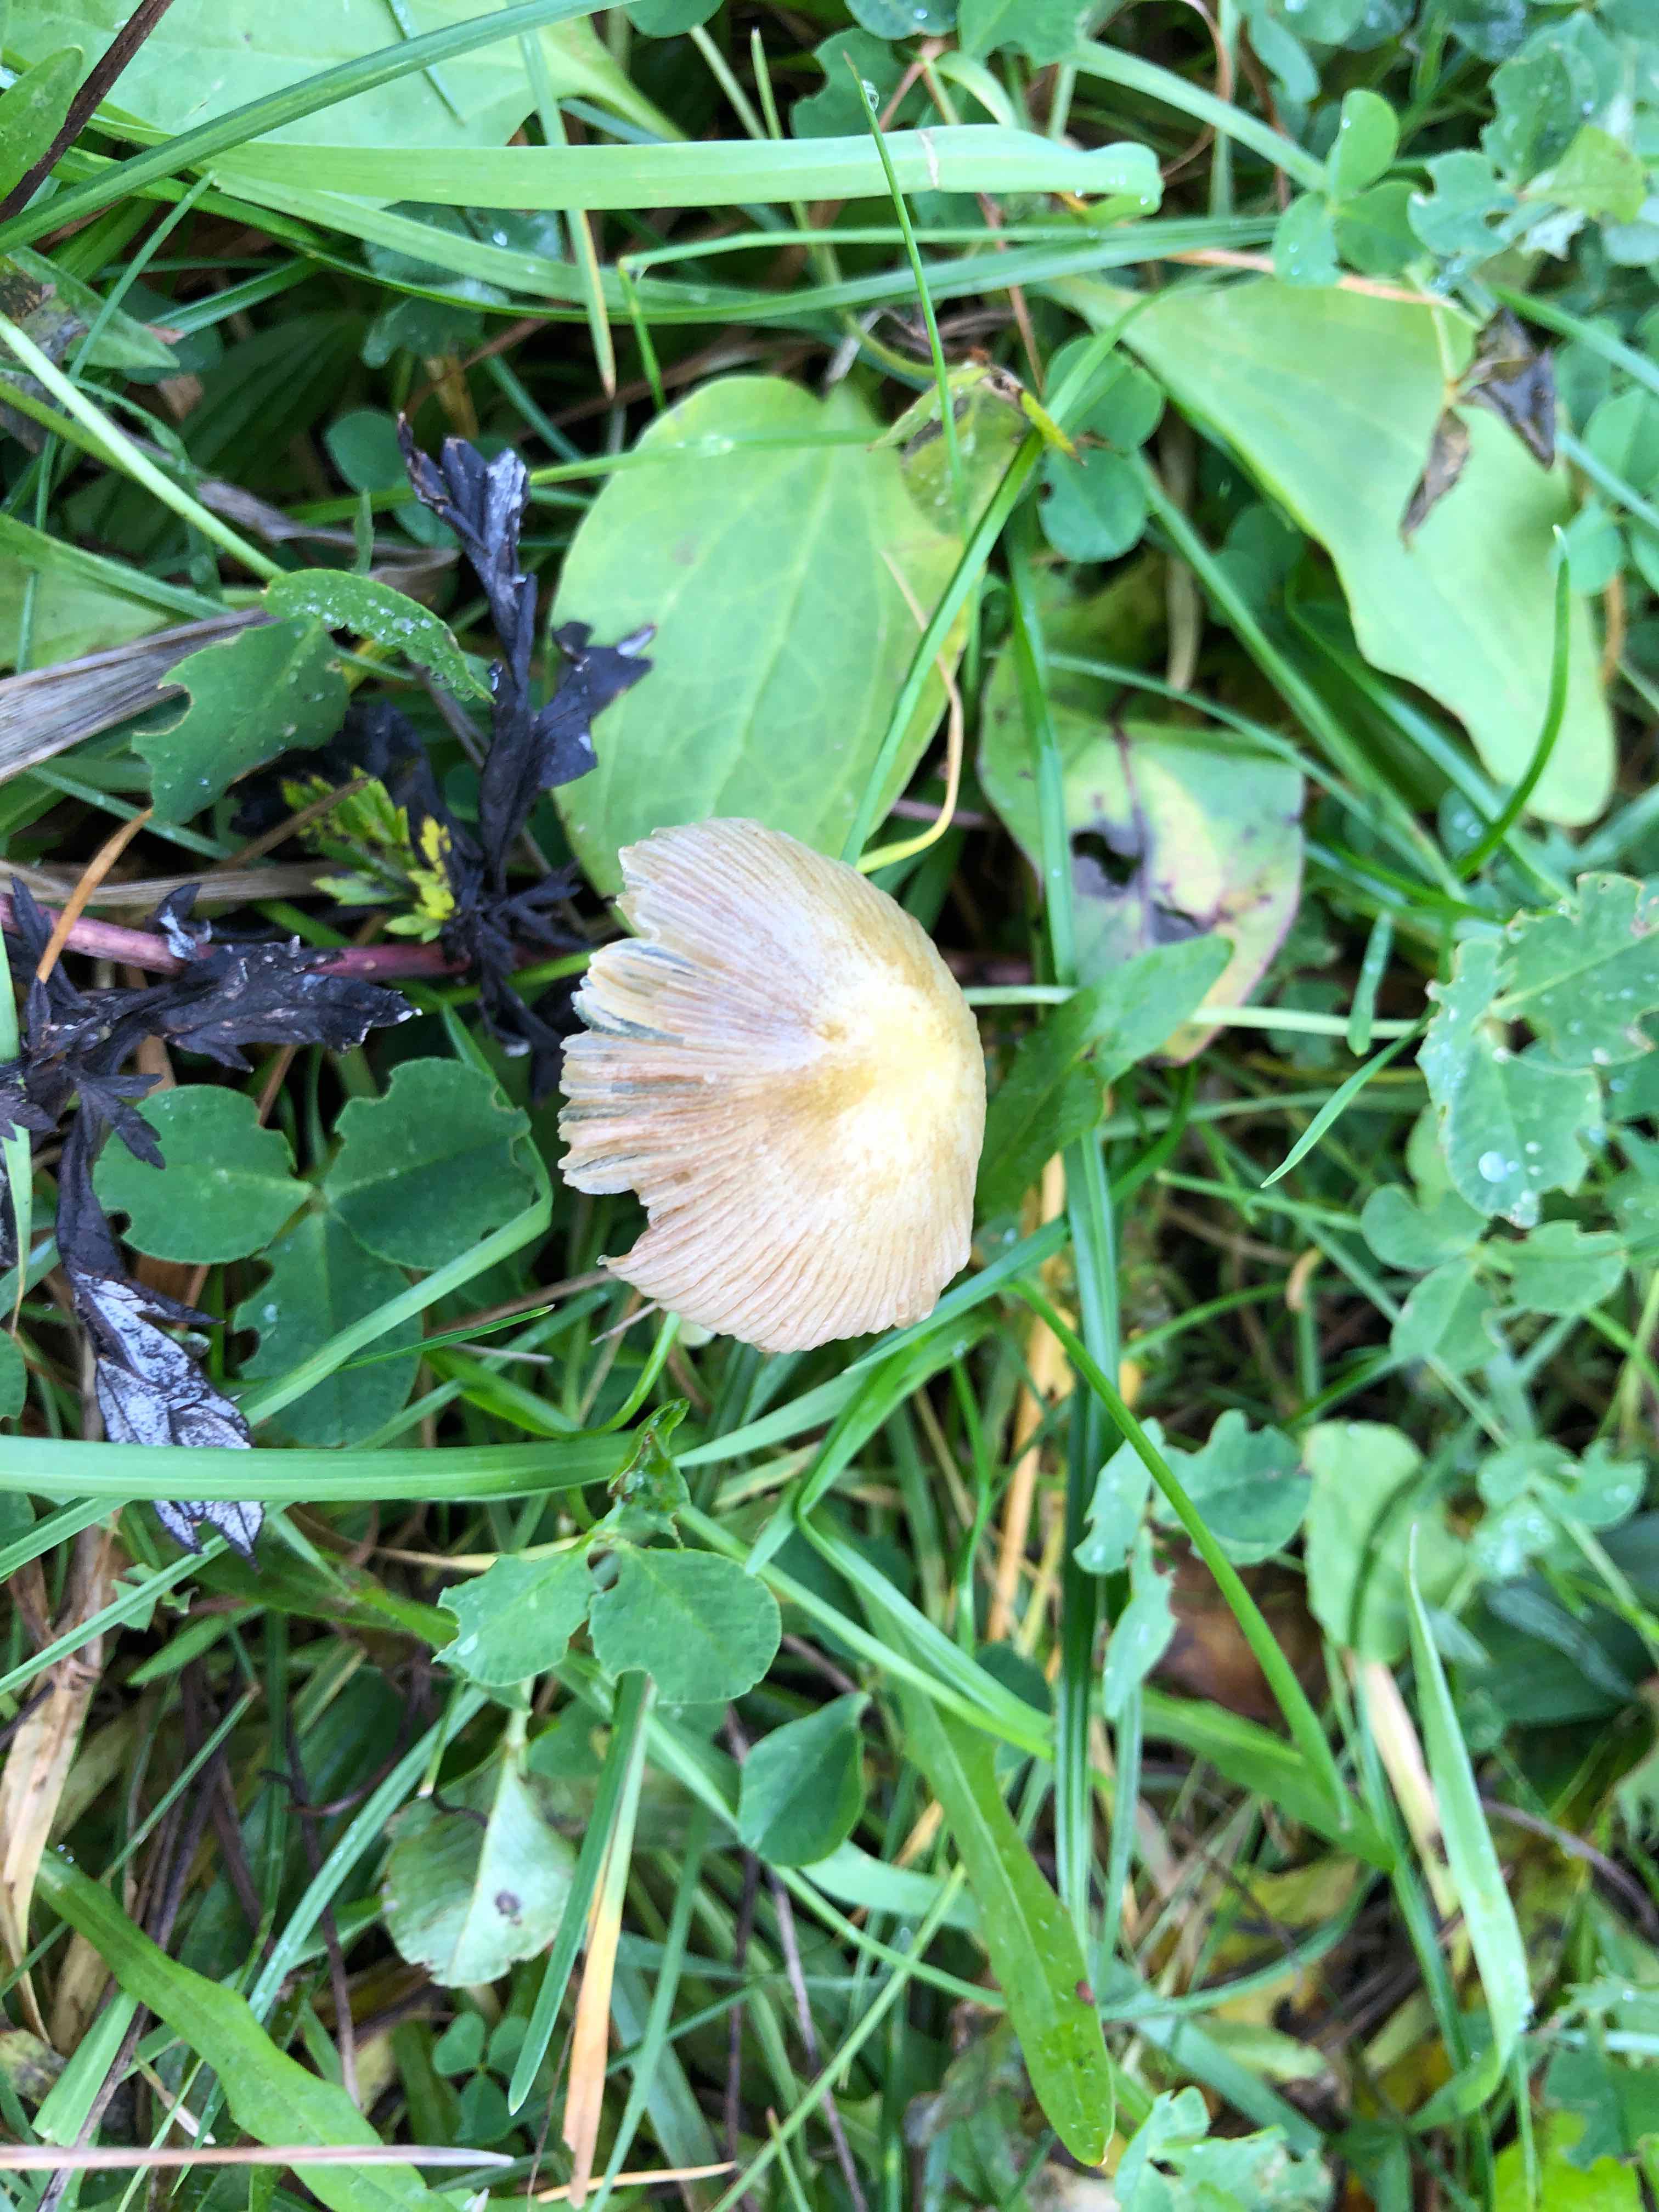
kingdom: Fungi
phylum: Basidiomycota
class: Agaricomycetes
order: Agaricales
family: Bolbitiaceae
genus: Bolbitius
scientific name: Bolbitius titubans
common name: almindelig gulhat
